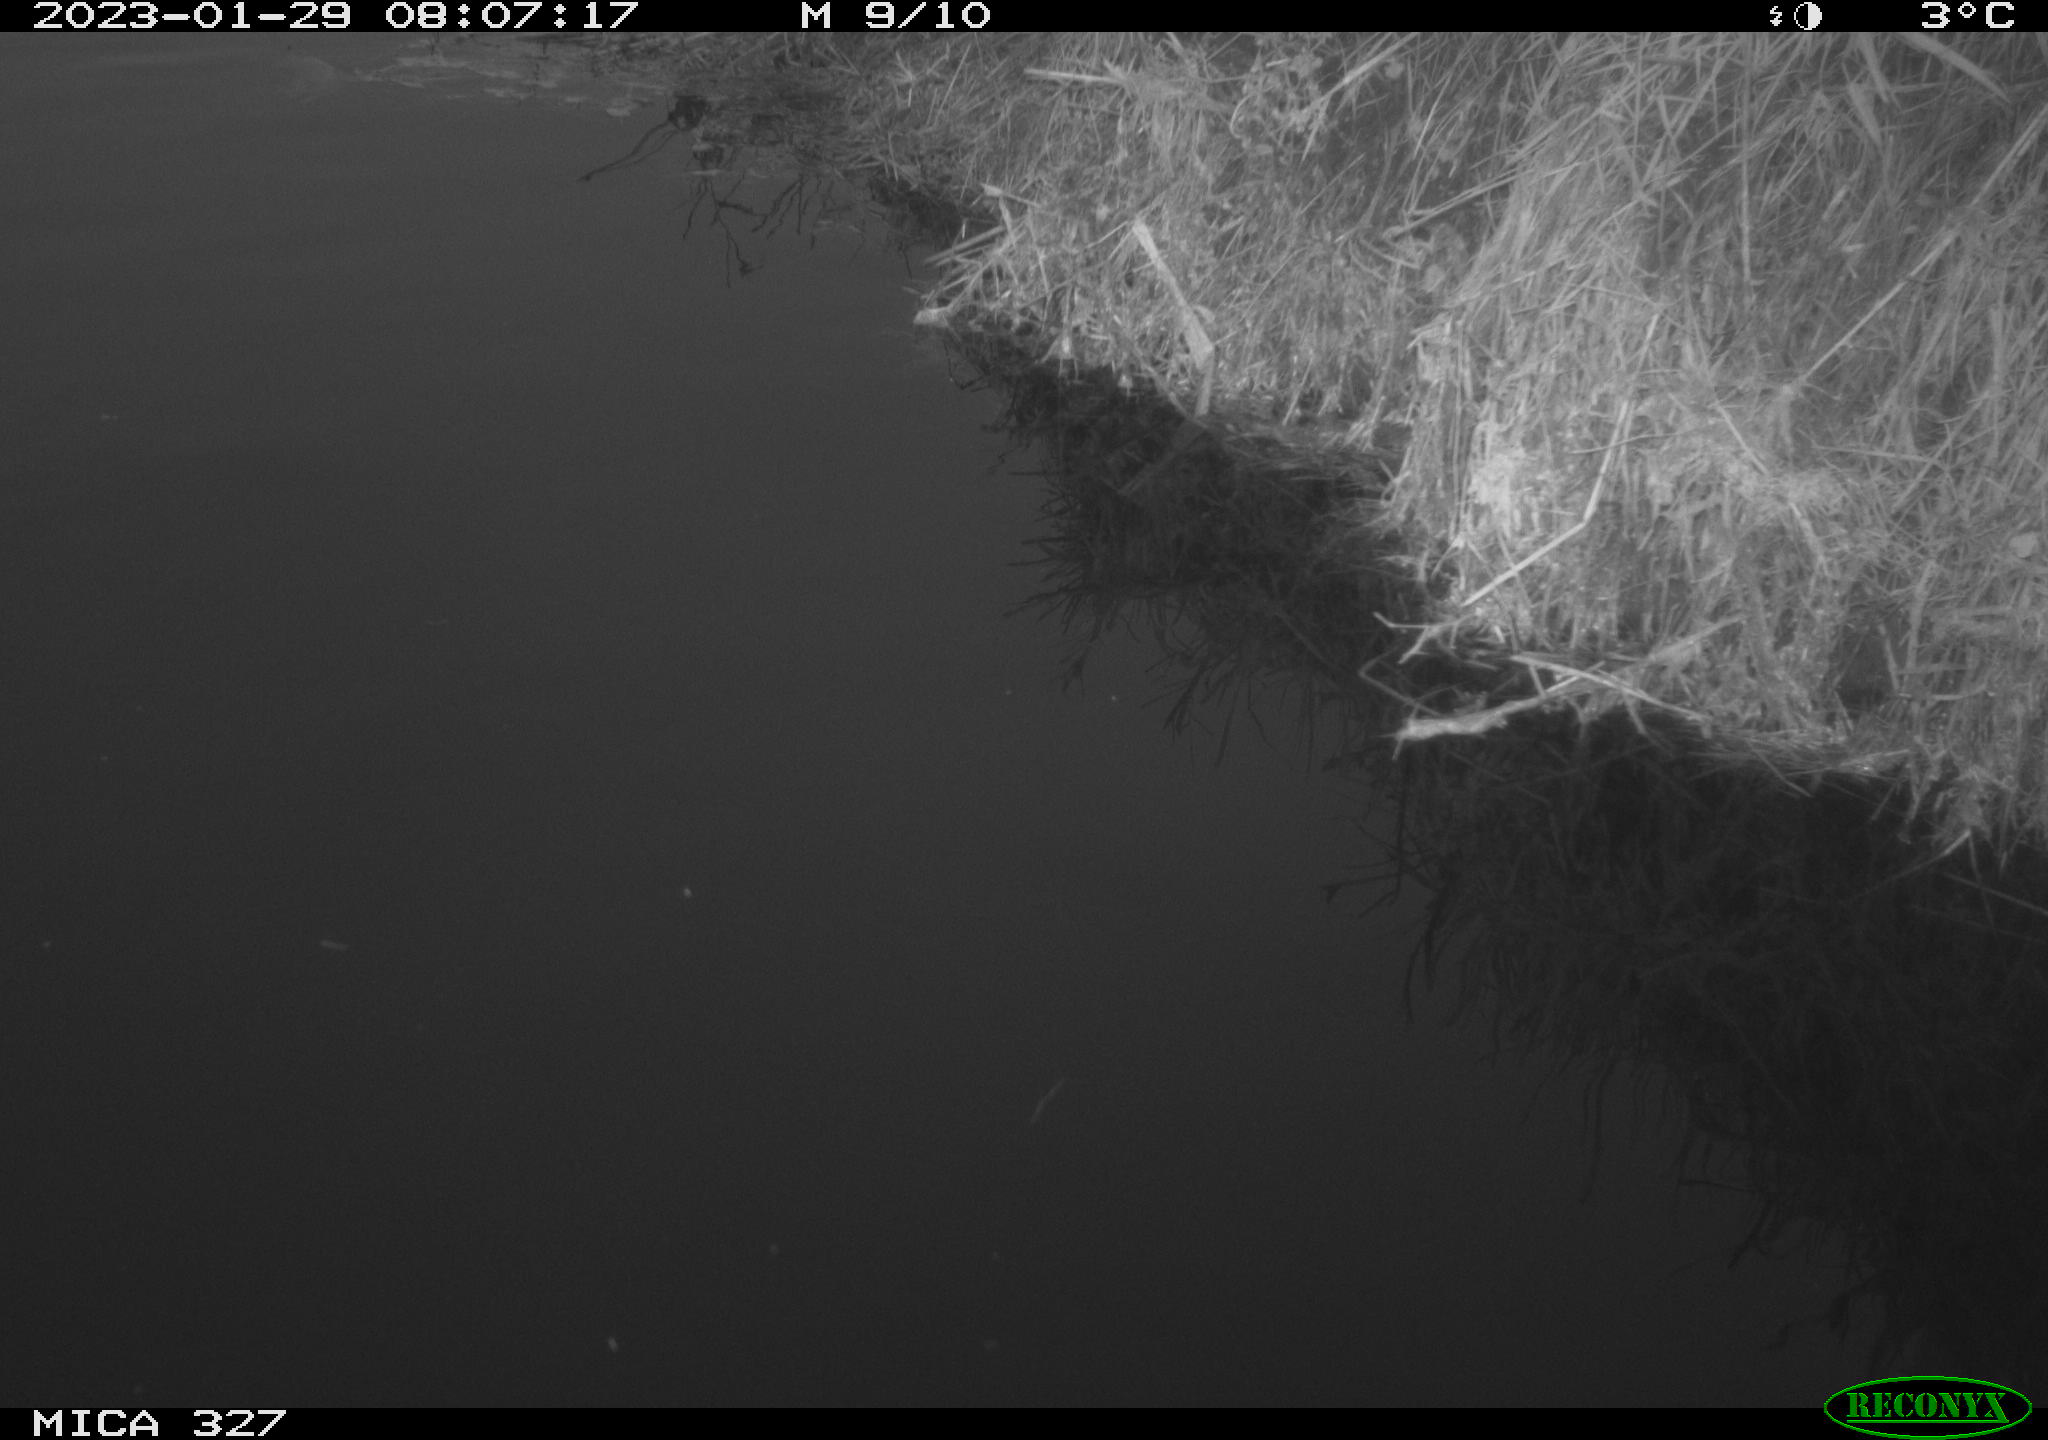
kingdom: Animalia
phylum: Chordata
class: Aves
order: Gruiformes
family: Rallidae
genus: Gallinula
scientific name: Gallinula chloropus
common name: Common moorhen
